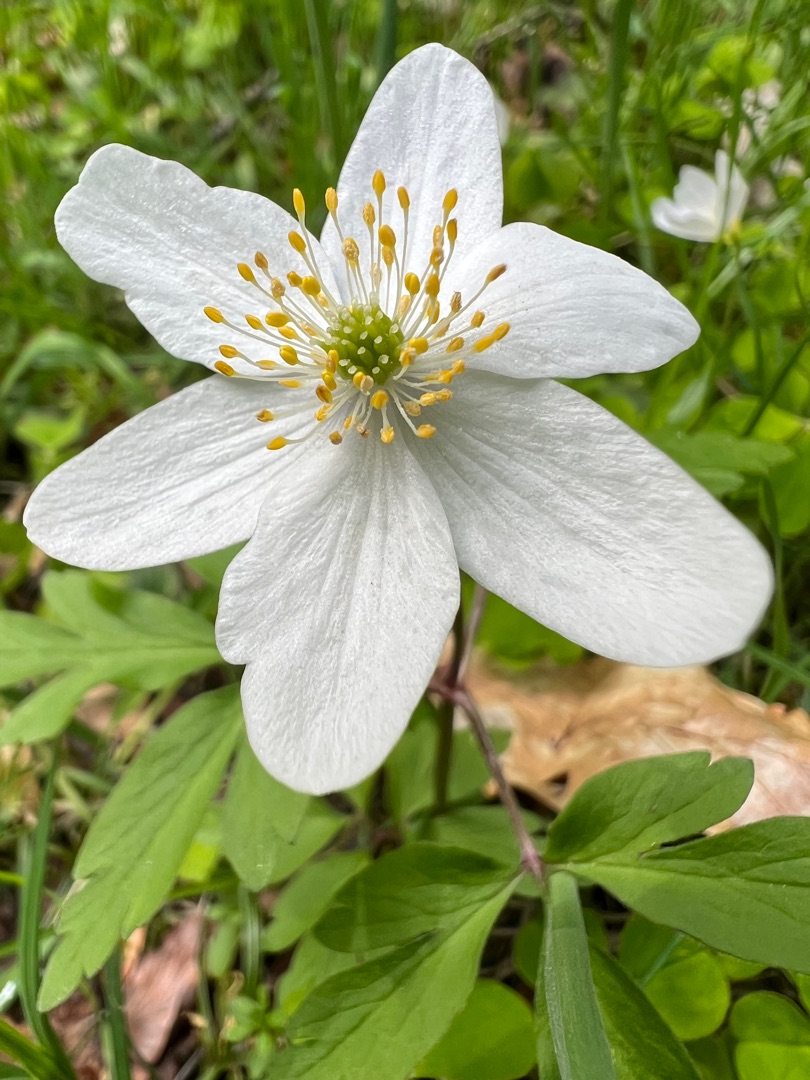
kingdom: Plantae
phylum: Tracheophyta
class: Magnoliopsida
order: Ranunculales
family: Ranunculaceae
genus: Anemone
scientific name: Anemone nemorosa
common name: Hvid anemone
